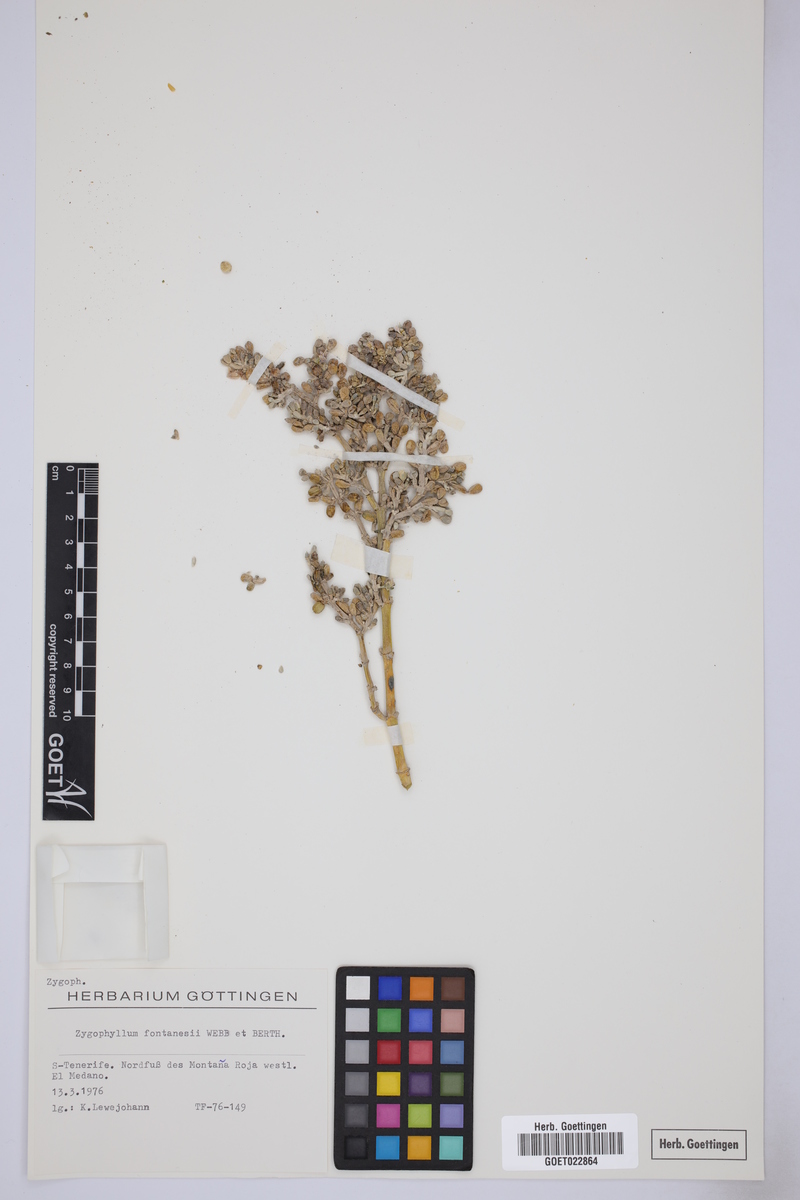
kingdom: Plantae
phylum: Tracheophyta
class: Magnoliopsida
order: Zygophyllales
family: Zygophyllaceae
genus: Tetraena
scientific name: Tetraena fontanesii
